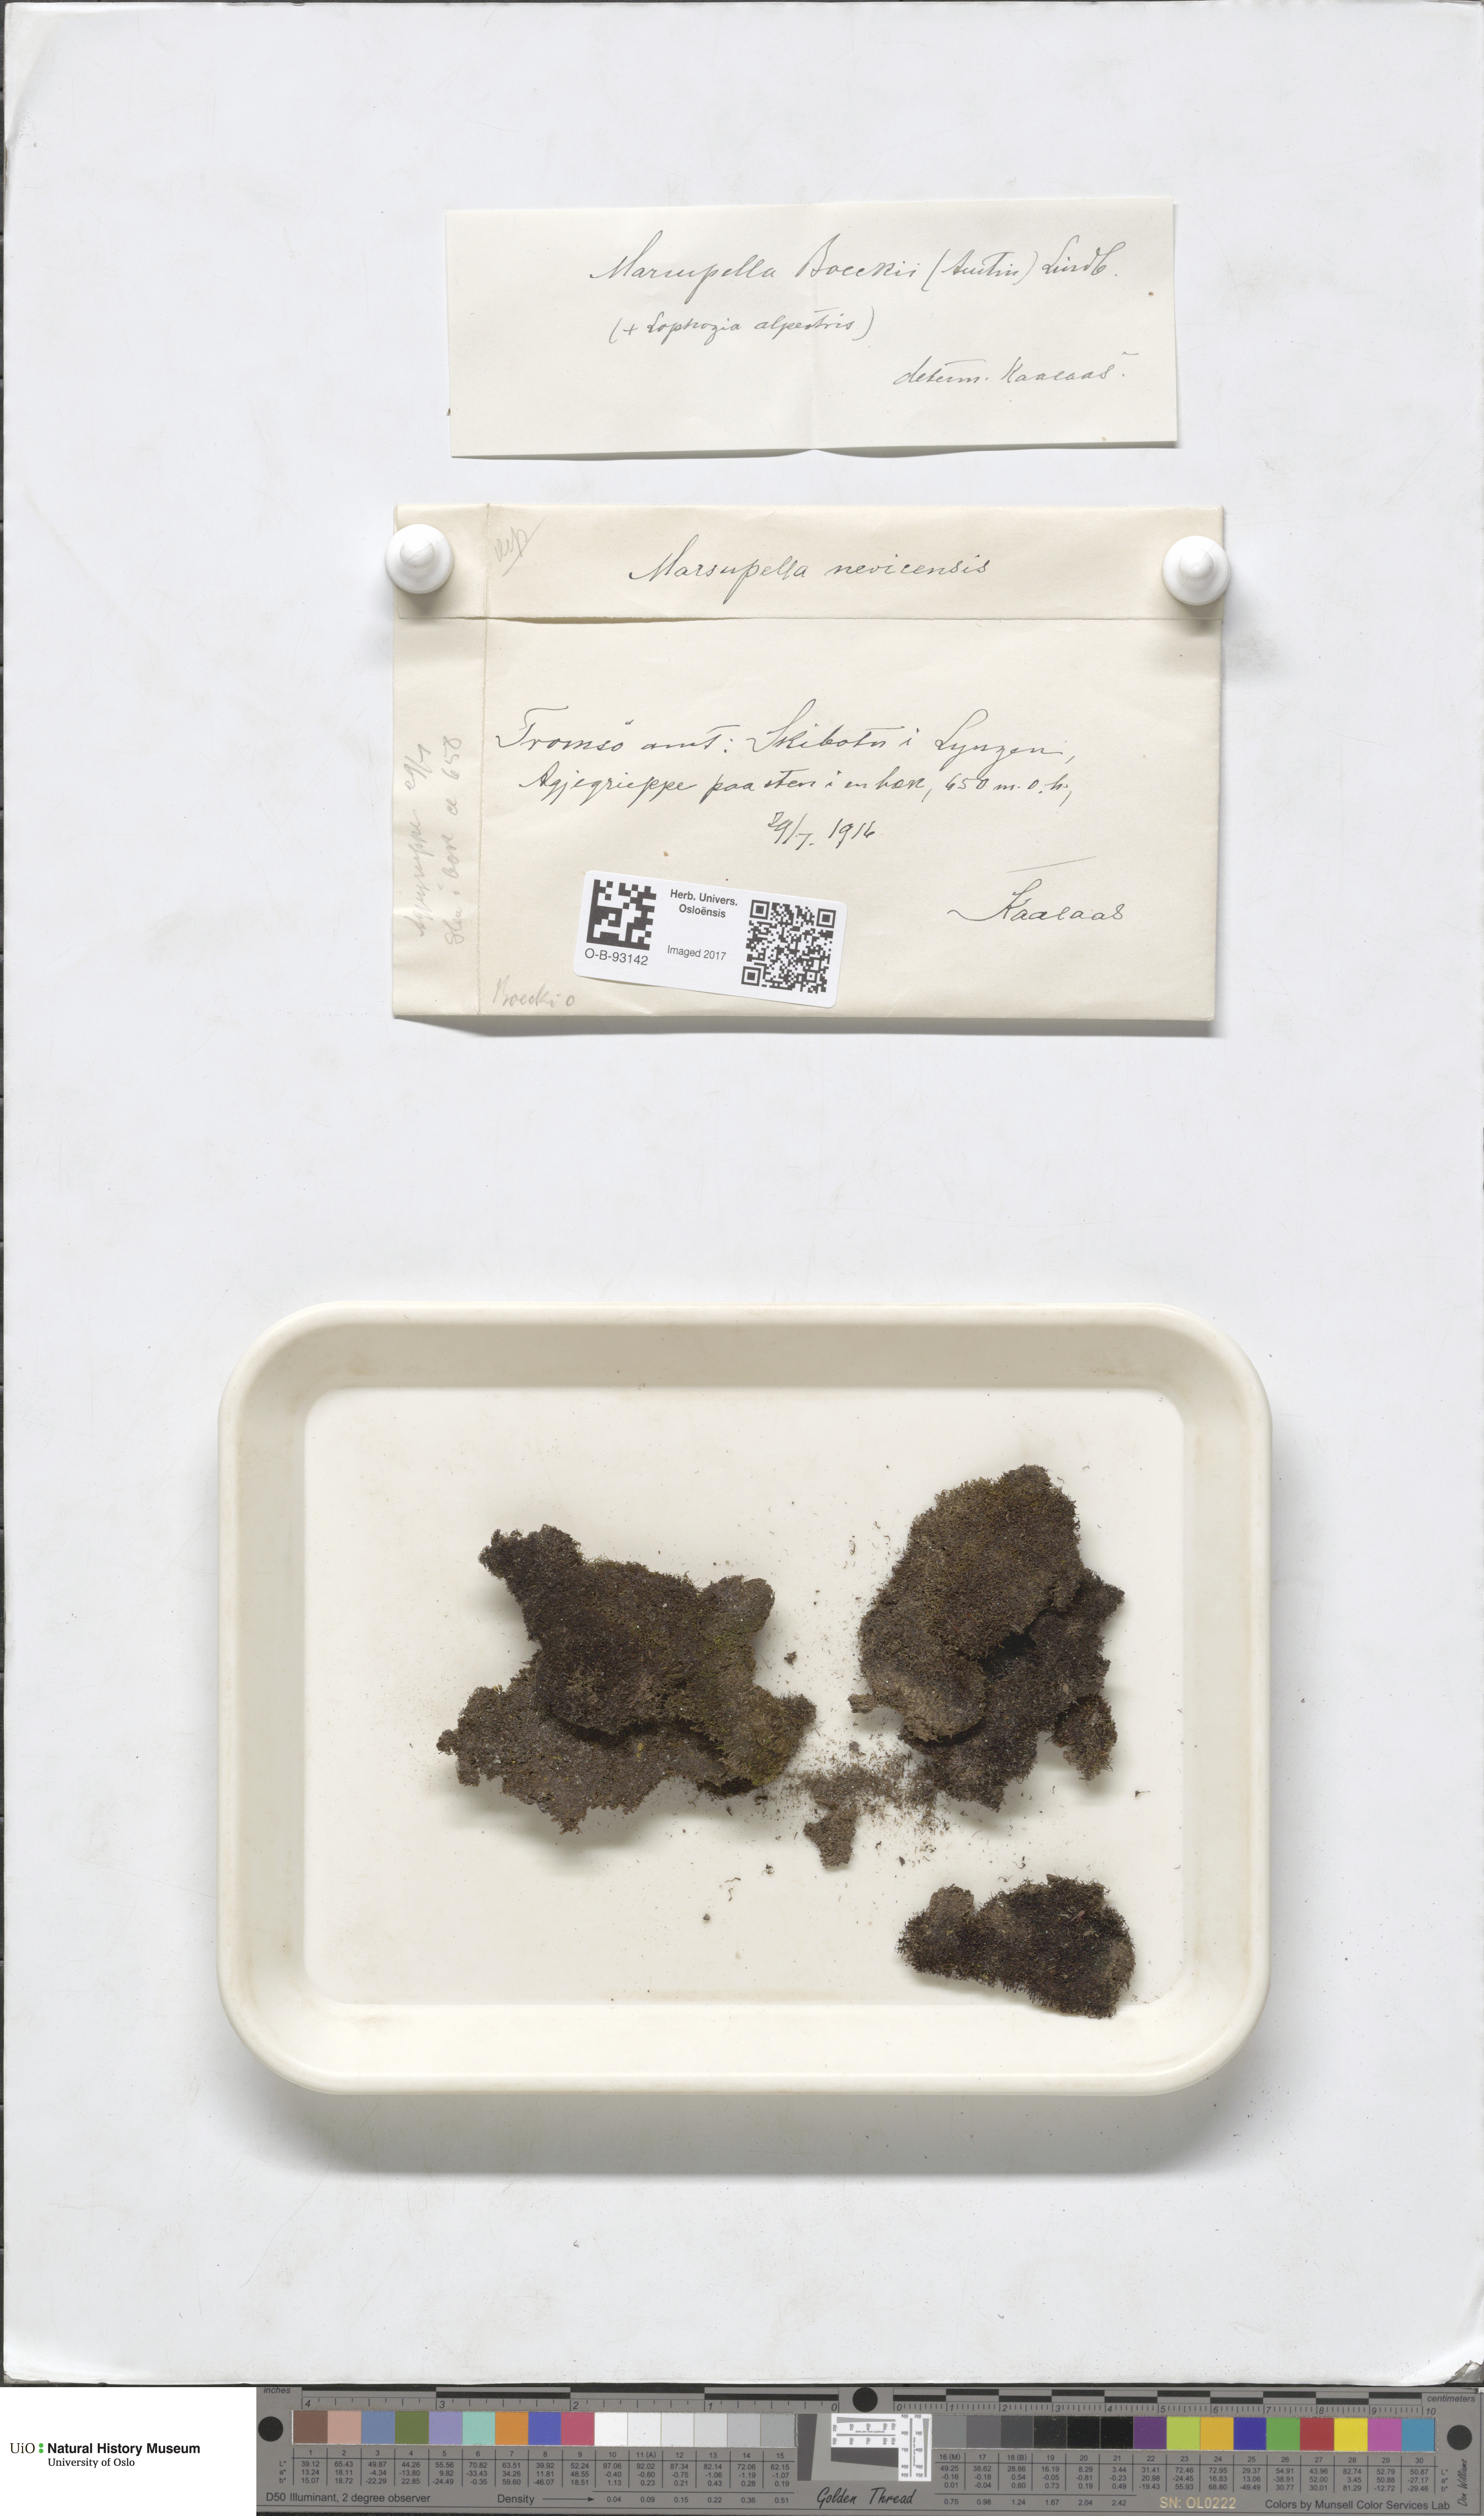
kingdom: Plantae
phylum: Marchantiophyta
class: Jungermanniopsida
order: Jungermanniales
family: Gymnomitriaceae
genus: Marsupella
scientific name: Marsupella boeckii
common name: Boeck s rustwort
